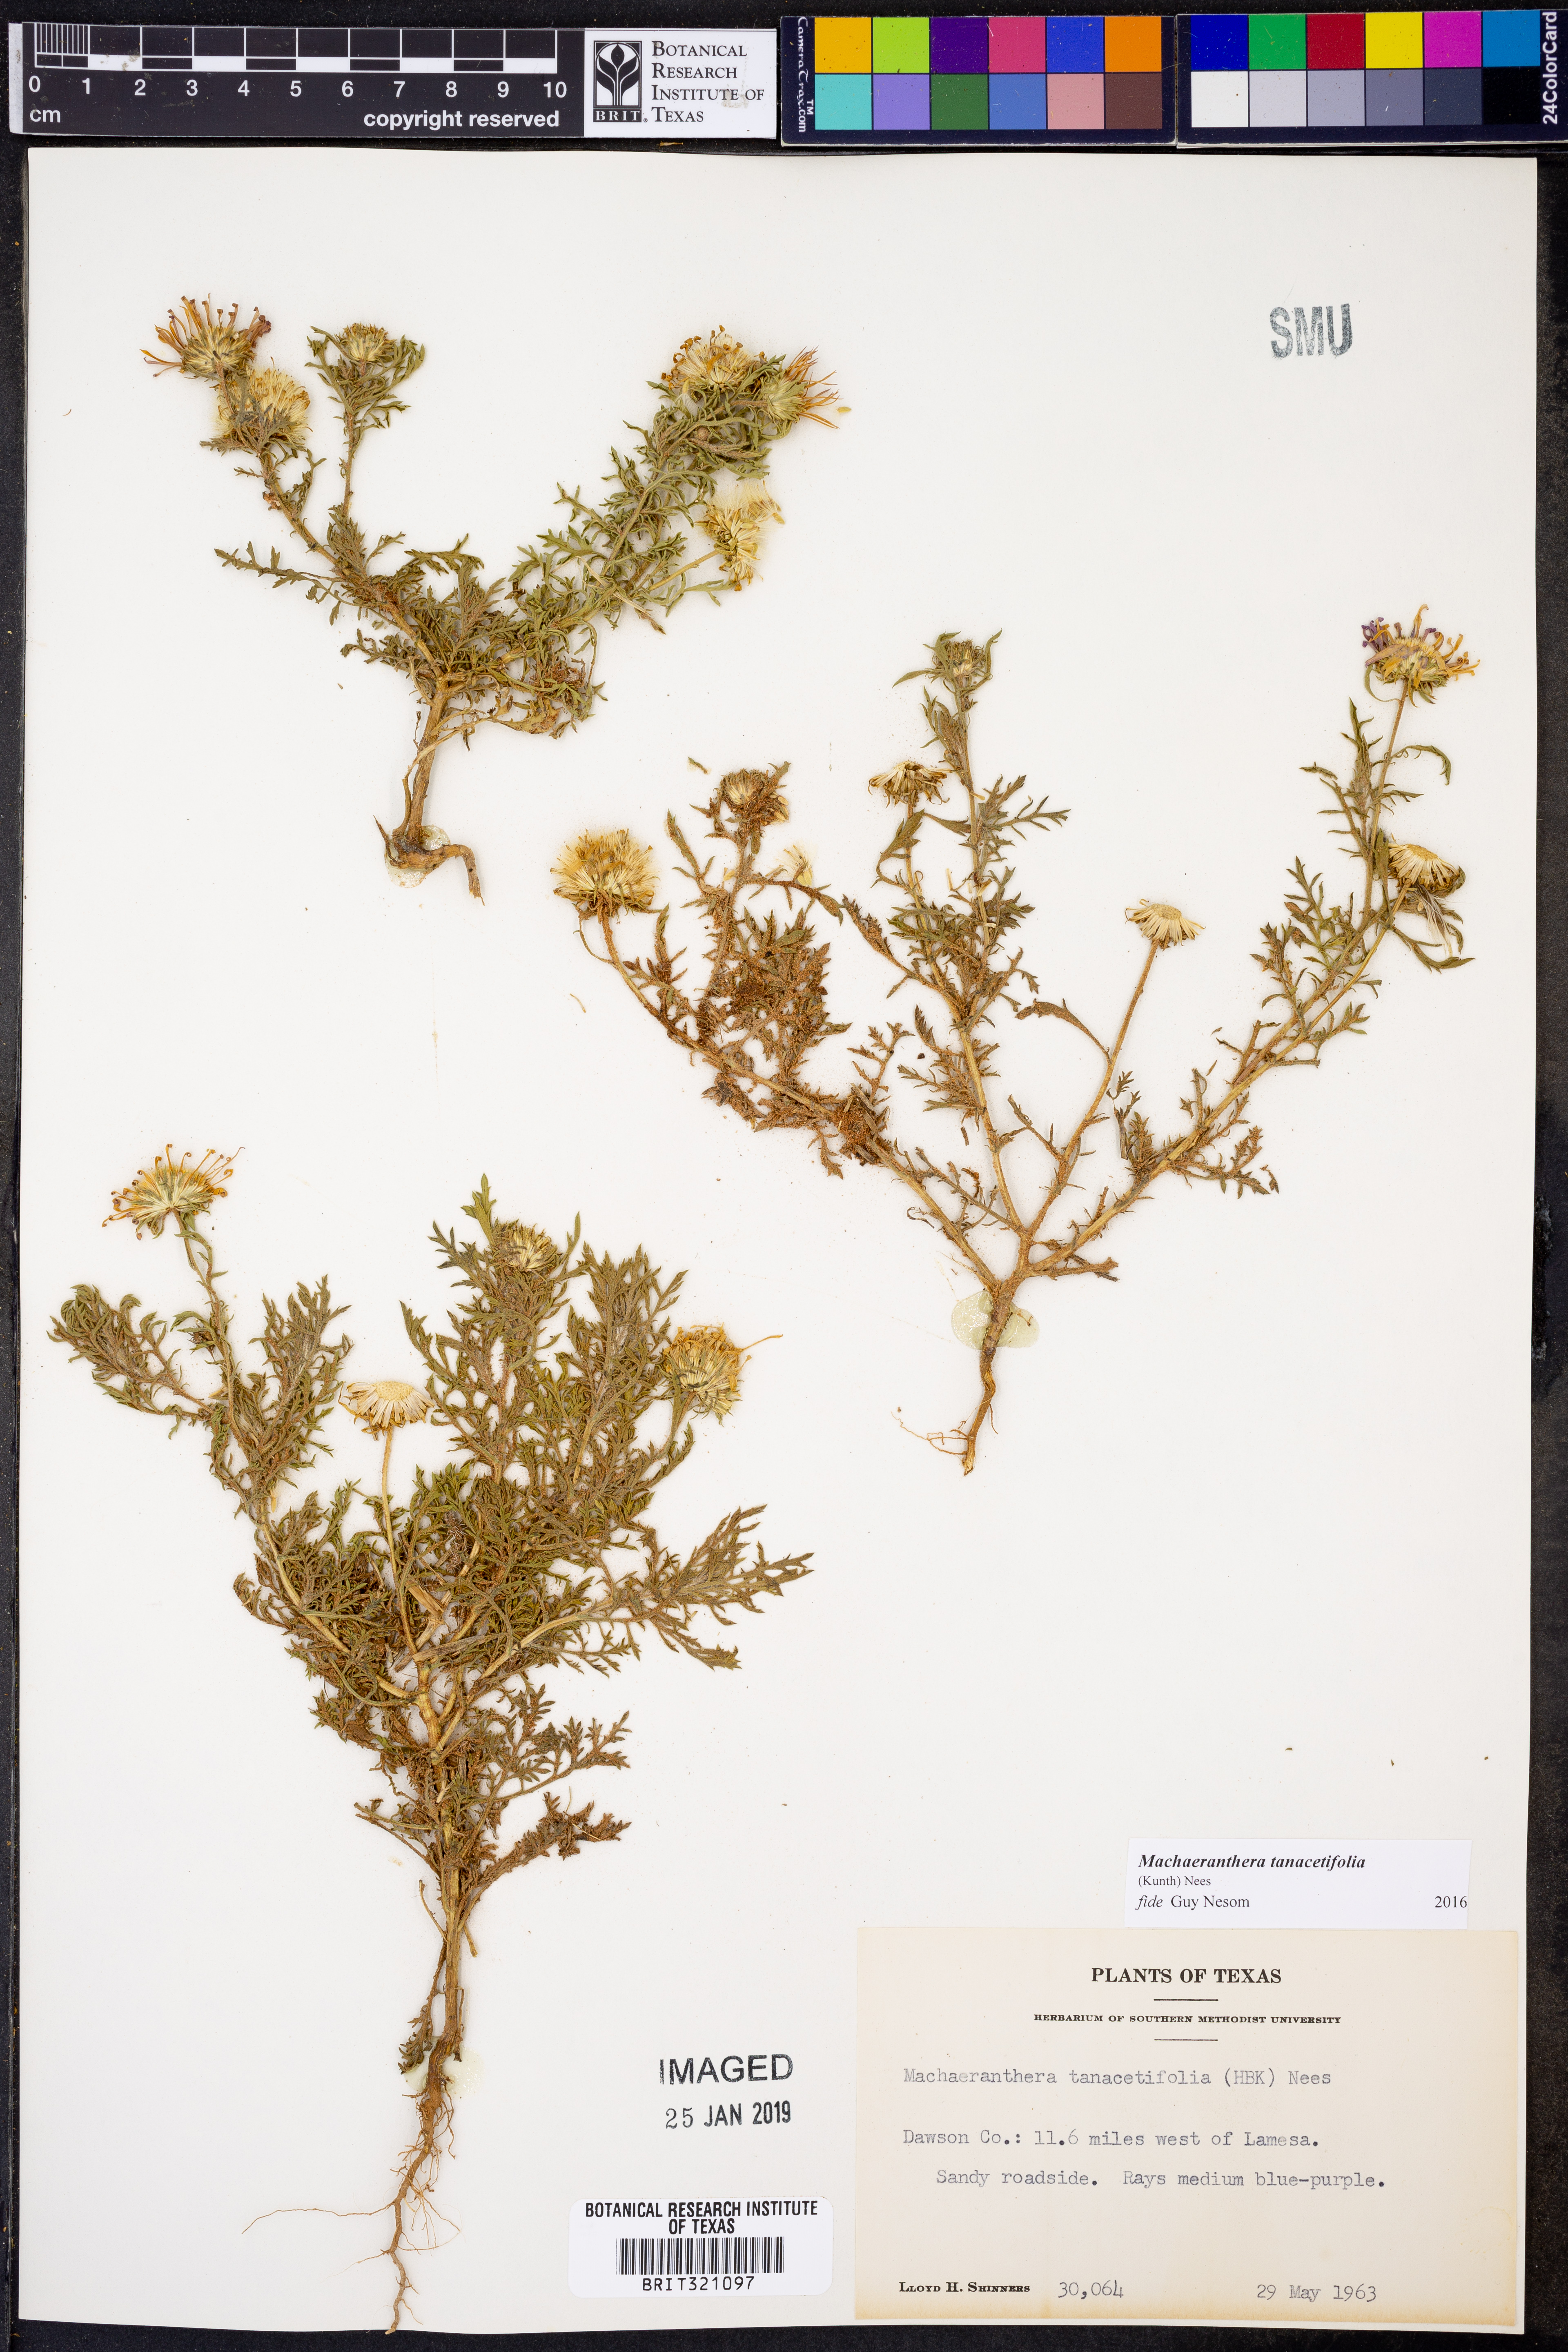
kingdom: Plantae
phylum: Tracheophyta
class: Magnoliopsida
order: Asterales
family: Asteraceae
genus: Machaeranthera
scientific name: Machaeranthera tanacetifolia
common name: Tansy-aster
